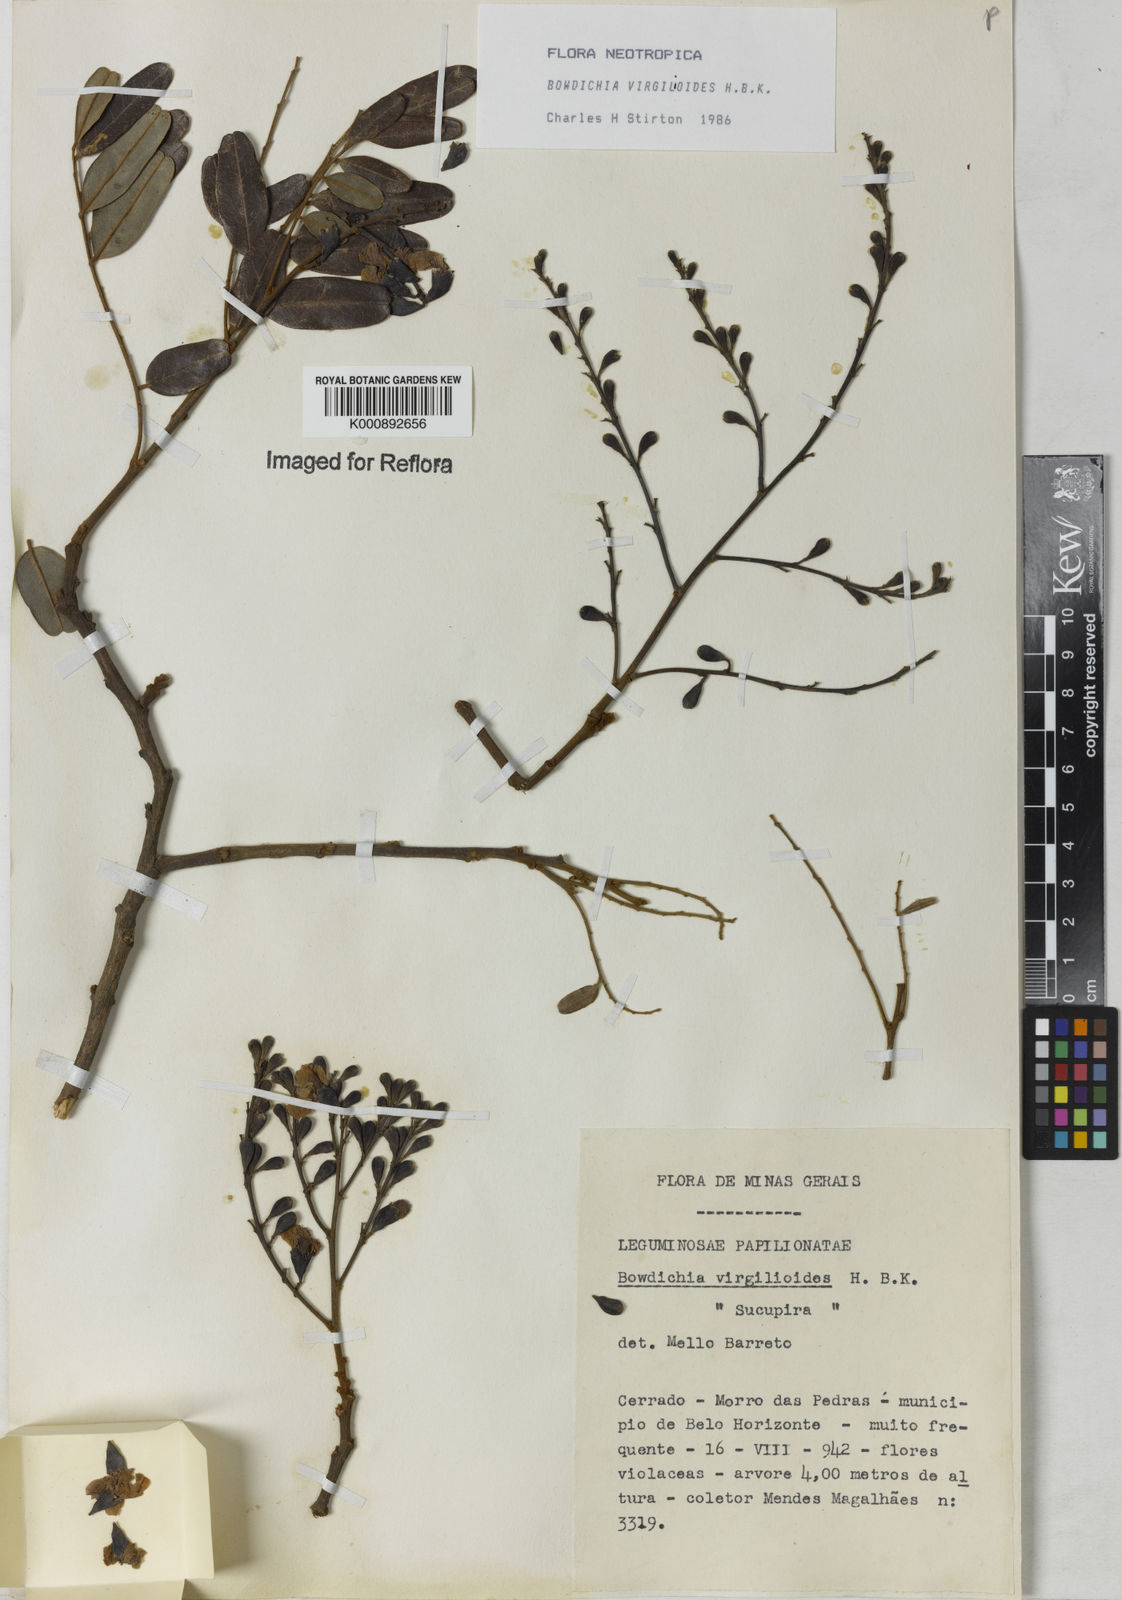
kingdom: Plantae
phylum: Tracheophyta
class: Magnoliopsida
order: Fabales
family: Fabaceae
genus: Bowdichia
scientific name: Bowdichia virgilioides
